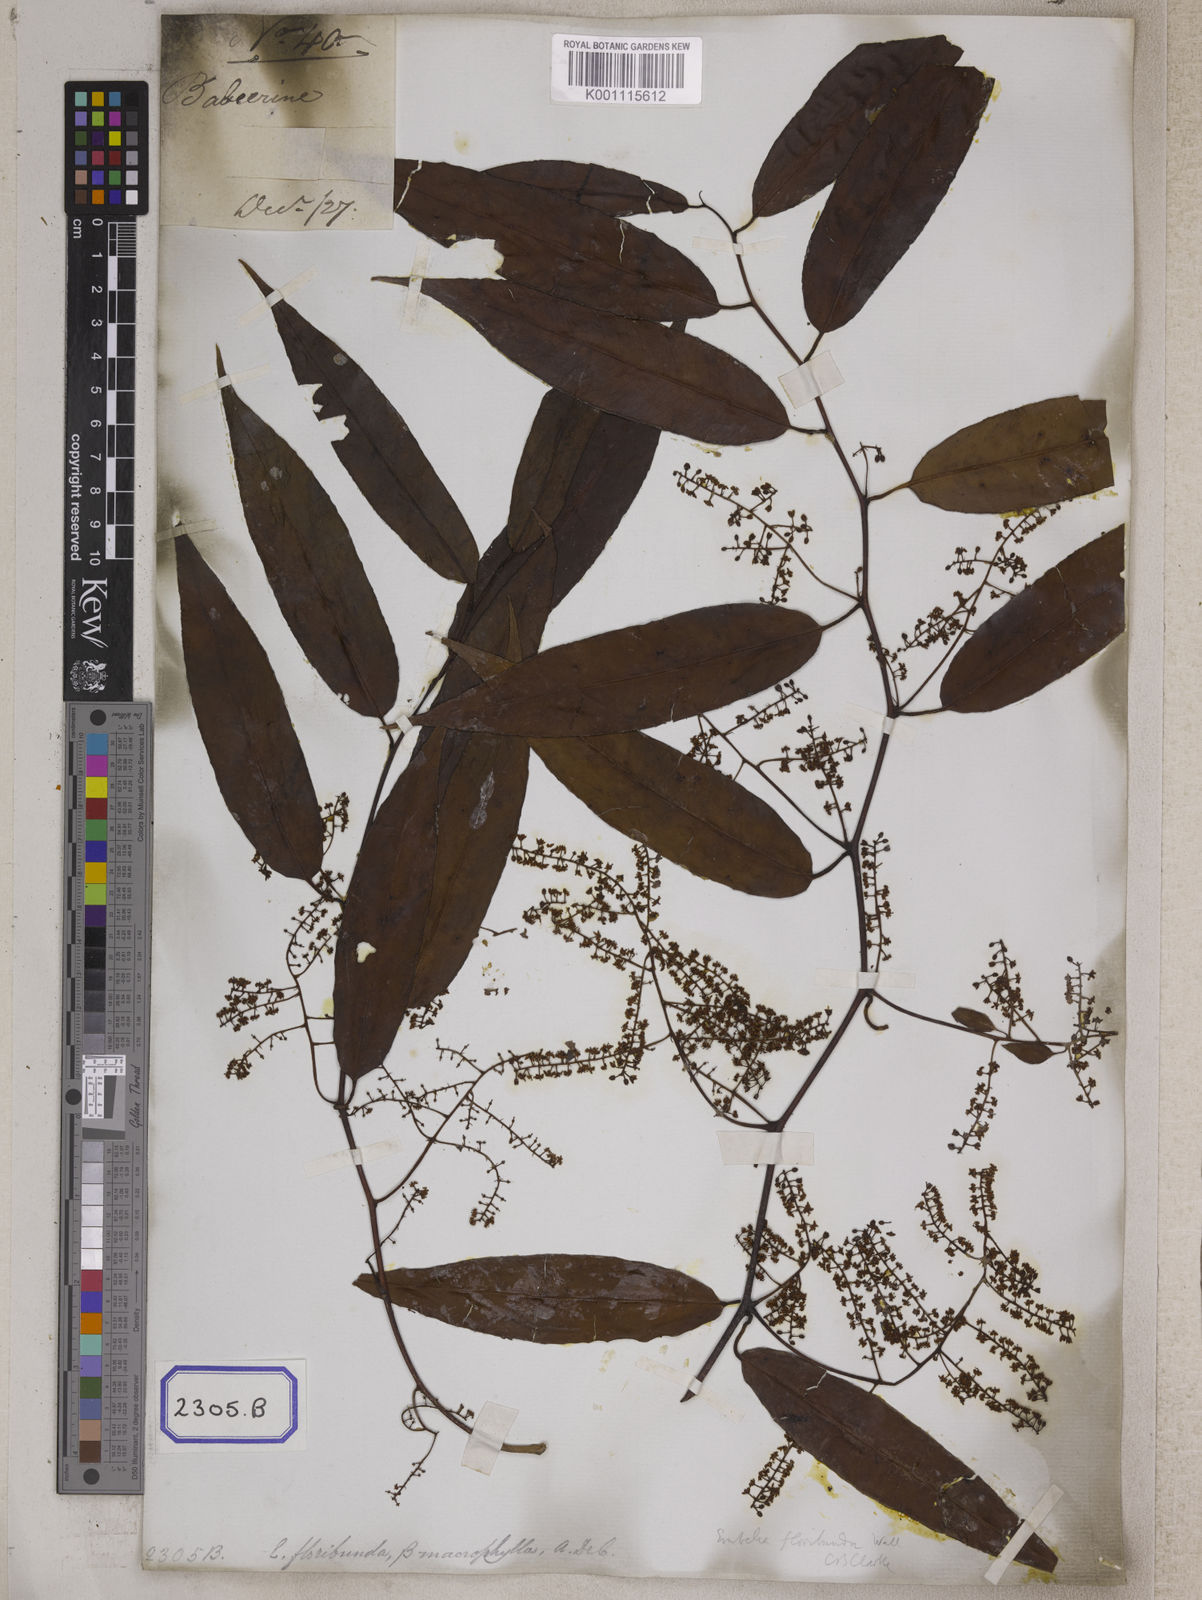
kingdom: Plantae
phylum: Tracheophyta
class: Magnoliopsida
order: Ericales
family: Primulaceae
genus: Embelia
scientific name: Embelia floribunda
